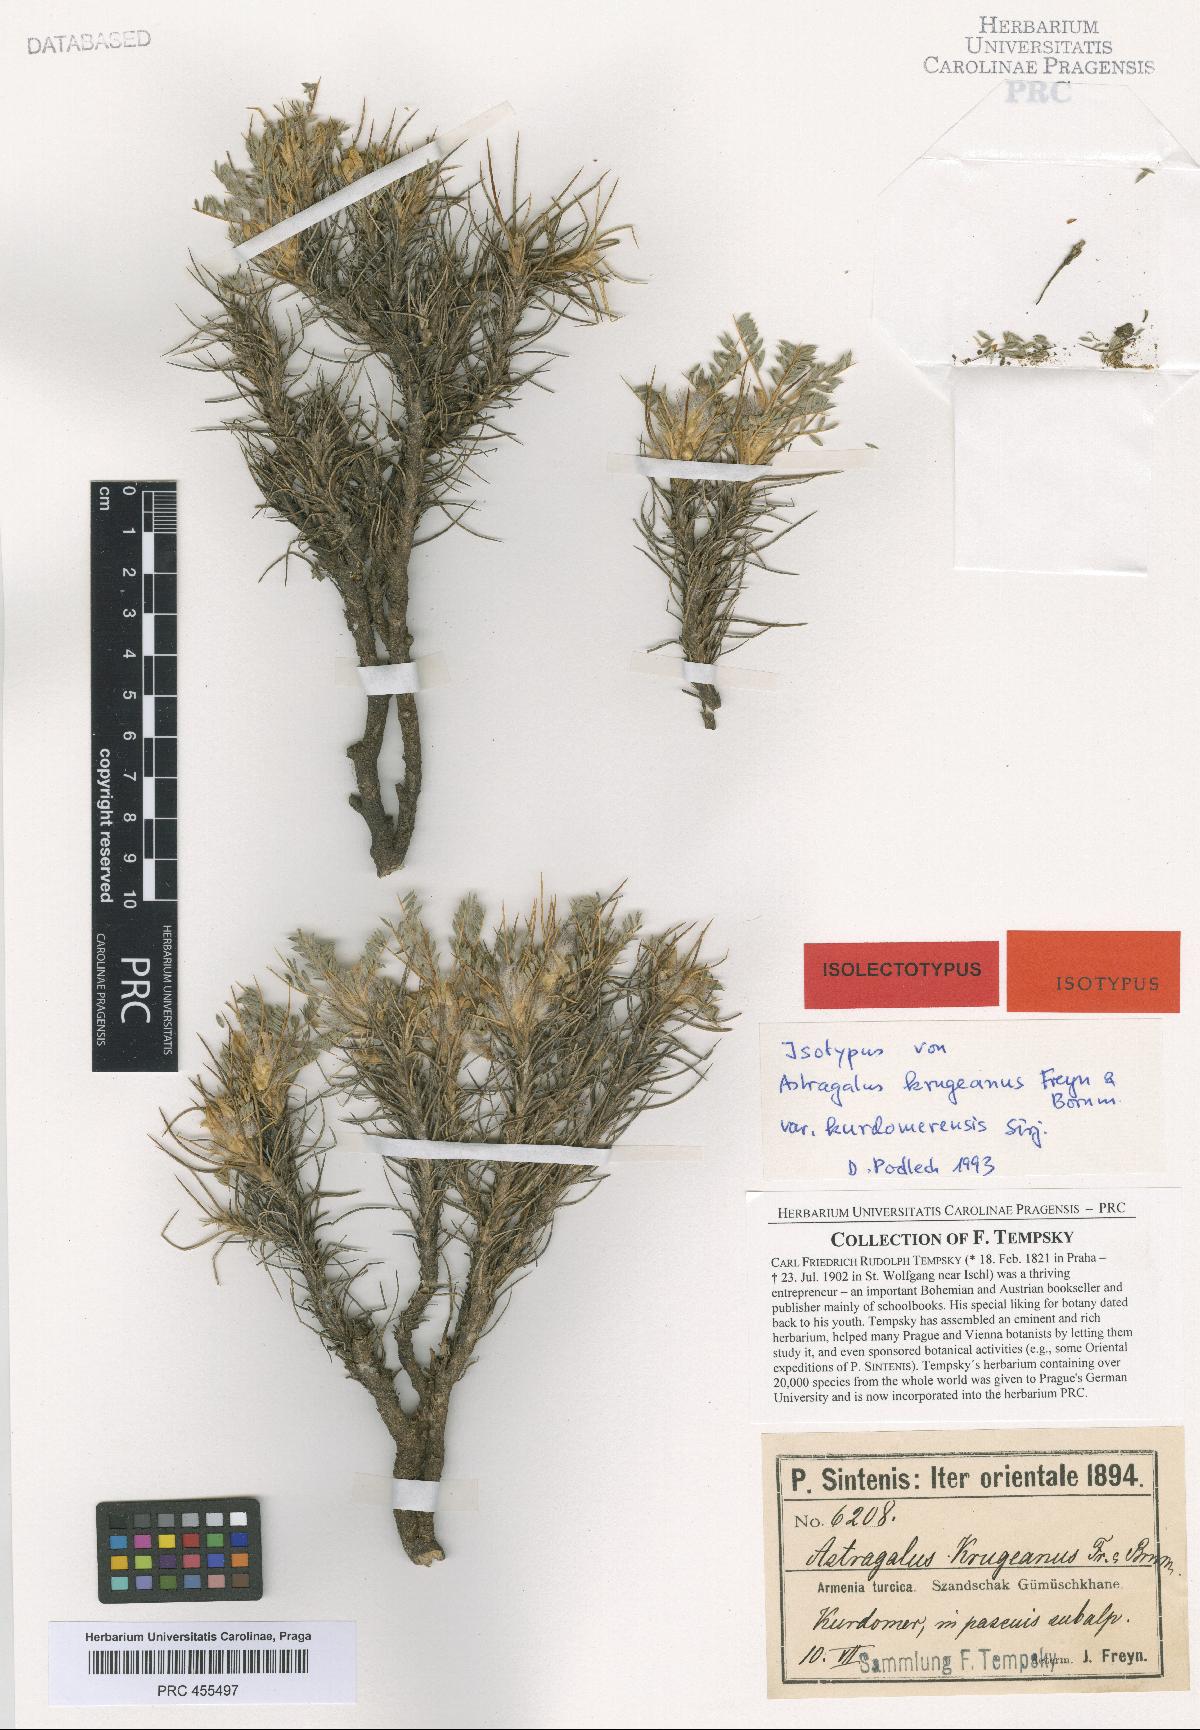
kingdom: Plantae
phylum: Tracheophyta
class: Magnoliopsida
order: Fabales
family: Fabaceae
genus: Astragalus
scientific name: Astragalus plumosus
